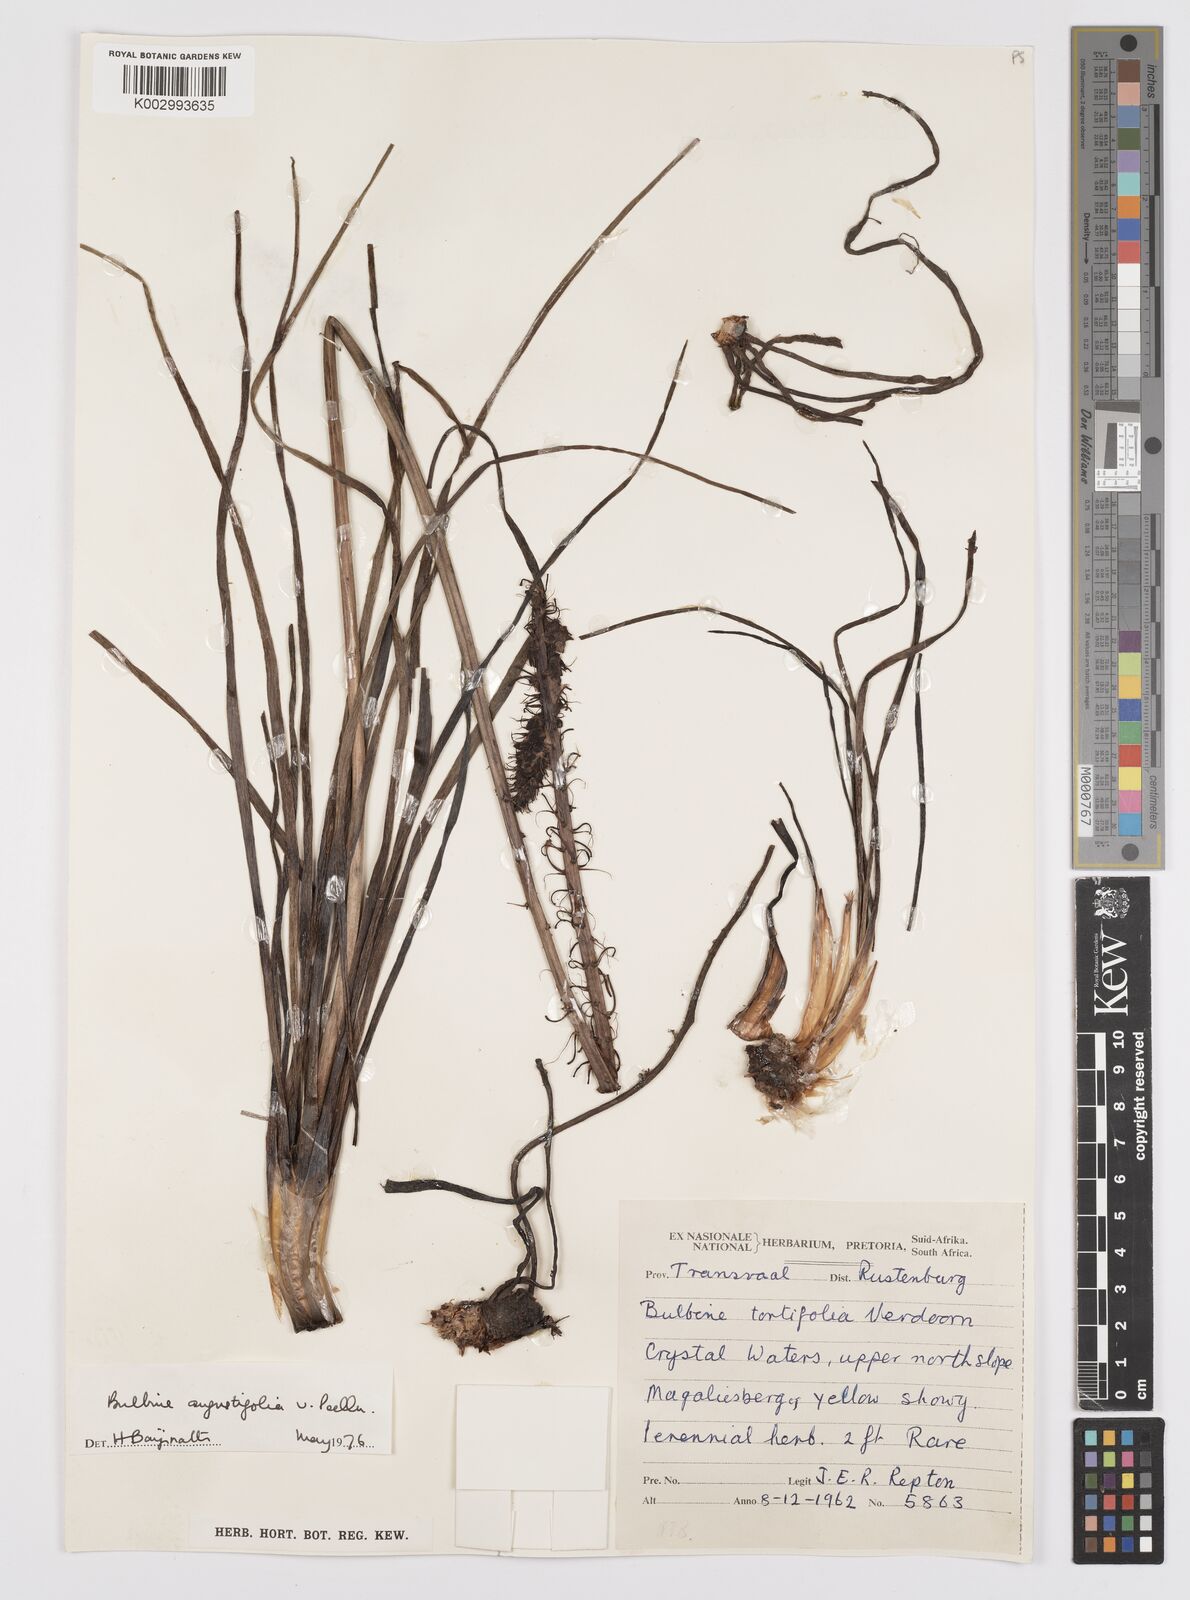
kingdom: Plantae
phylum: Tracheophyta
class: Liliopsida
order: Asparagales
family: Asphodelaceae
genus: Bulbine
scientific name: Bulbine angustifolia
